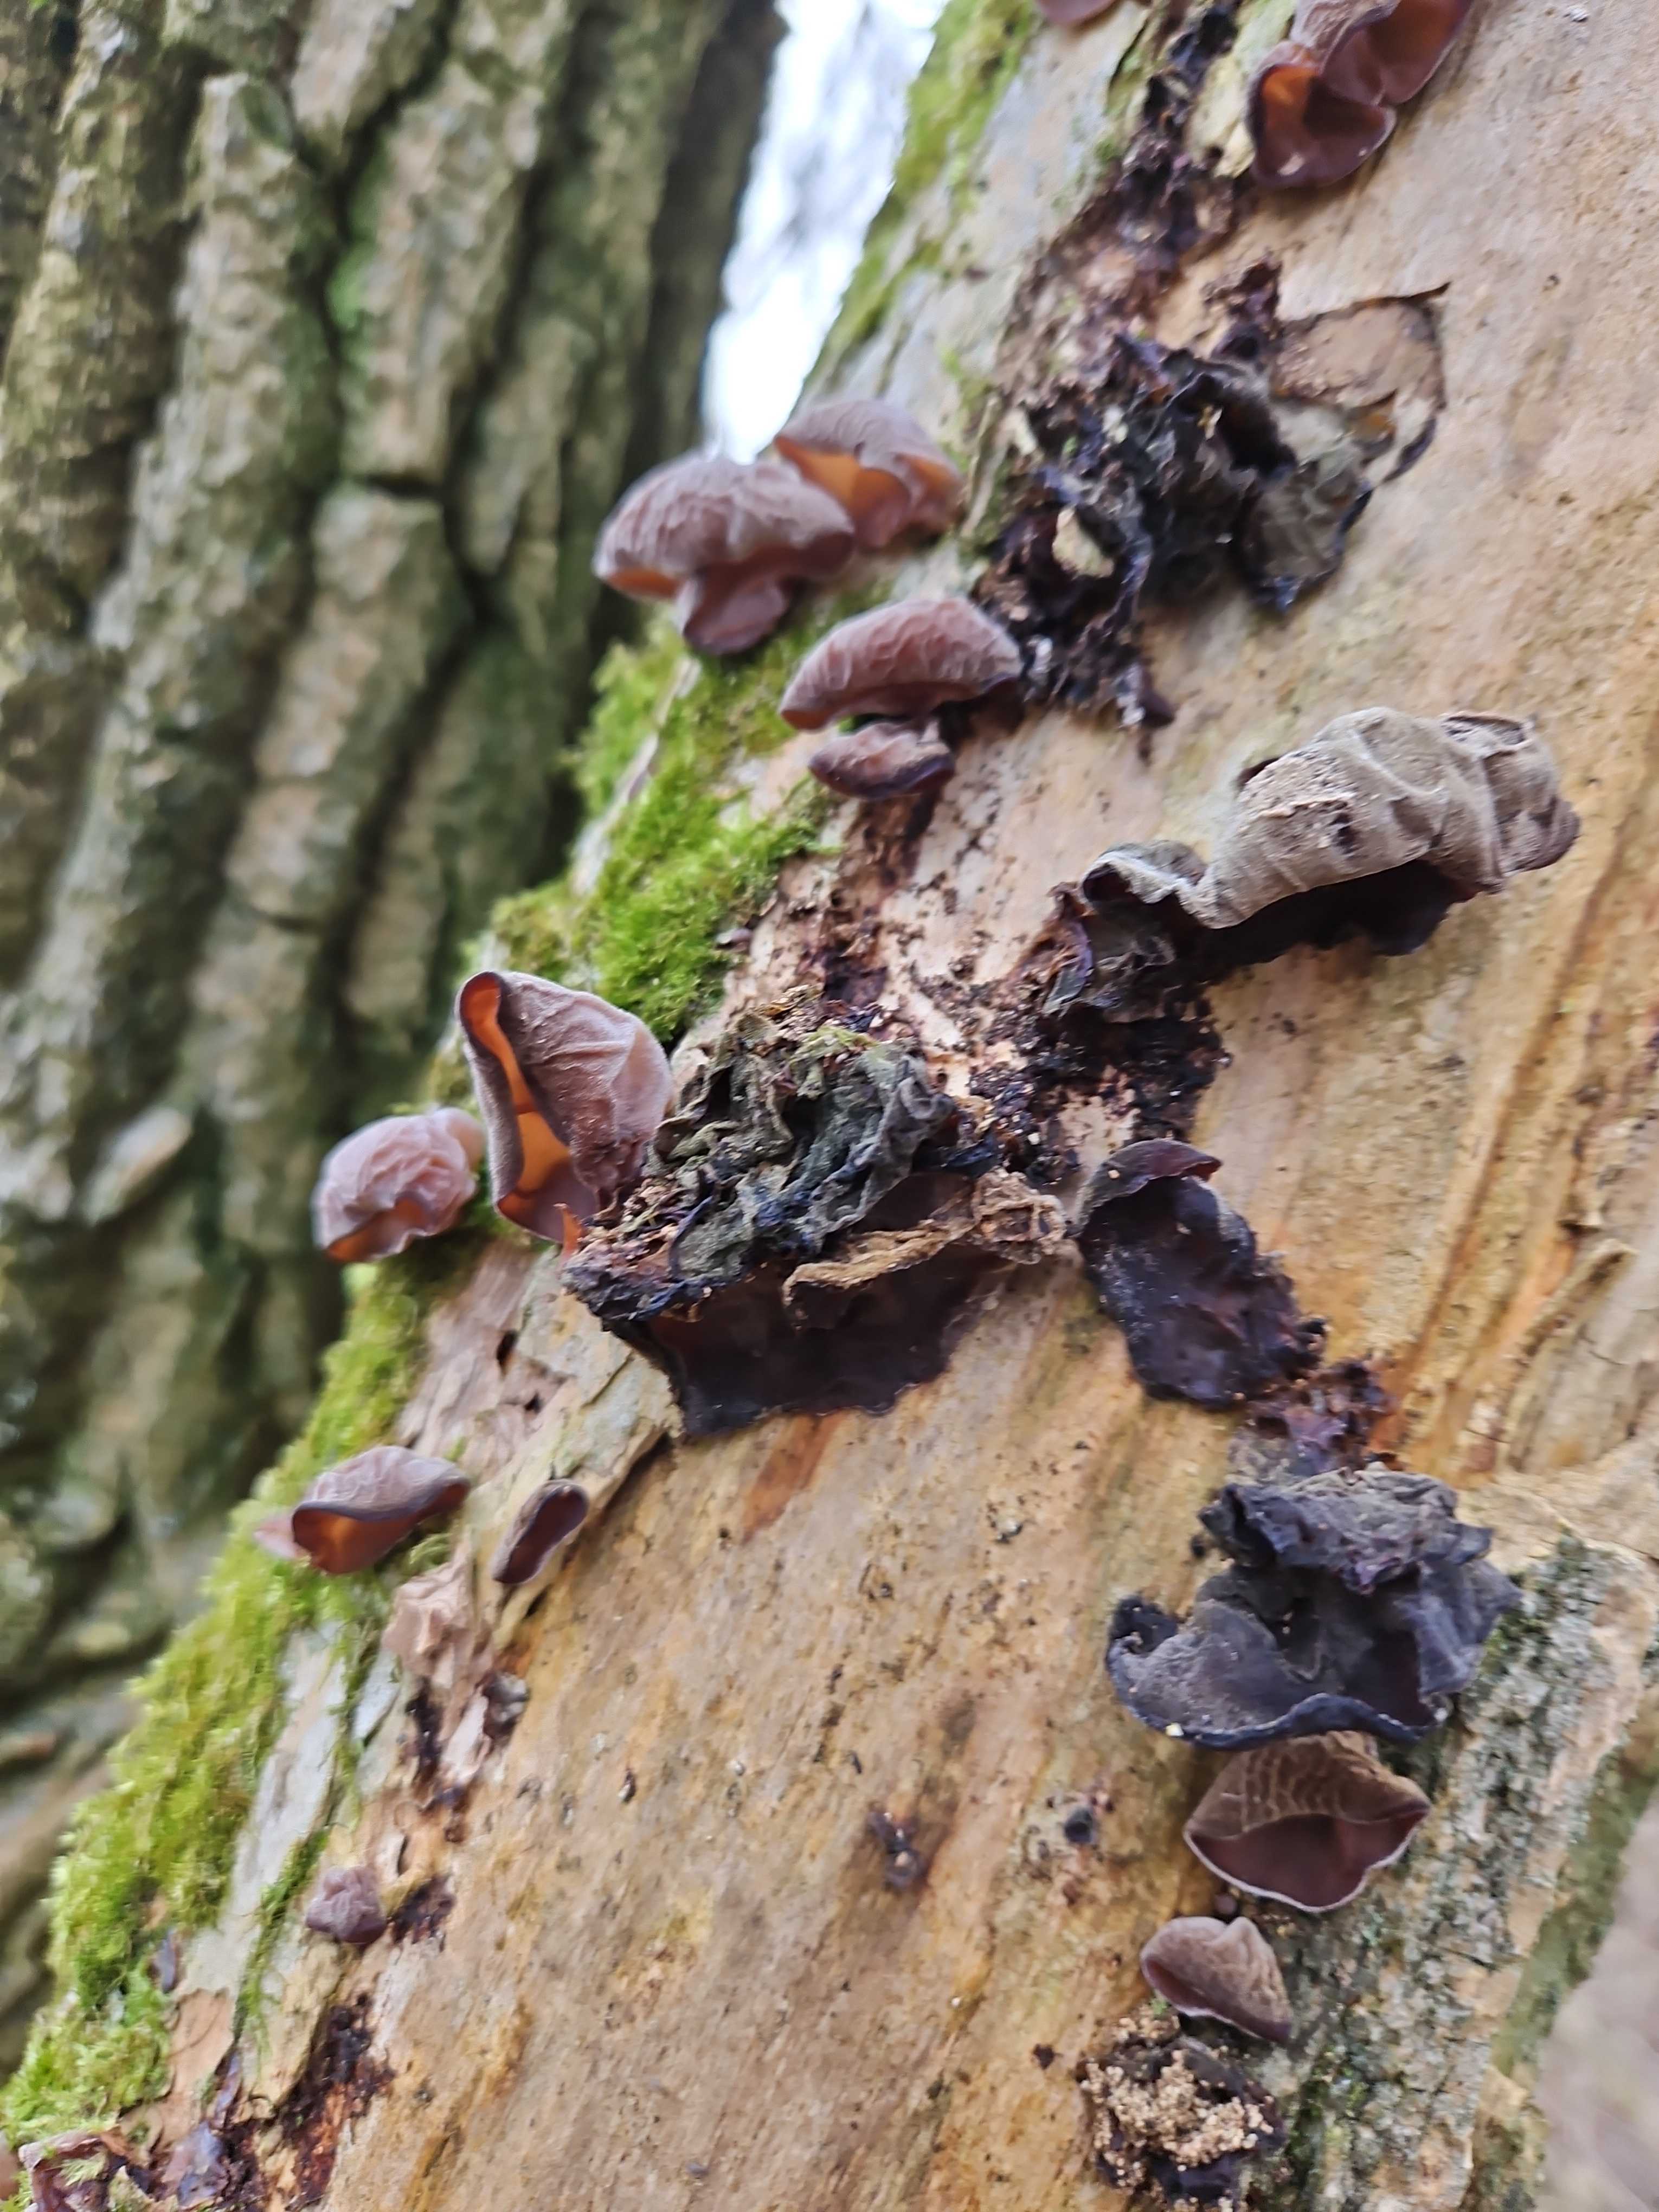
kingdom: Fungi
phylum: Basidiomycota
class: Agaricomycetes
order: Auriculariales
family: Auriculariaceae
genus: Auricularia
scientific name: Auricularia auricula-judae
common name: almindelig judasøre
